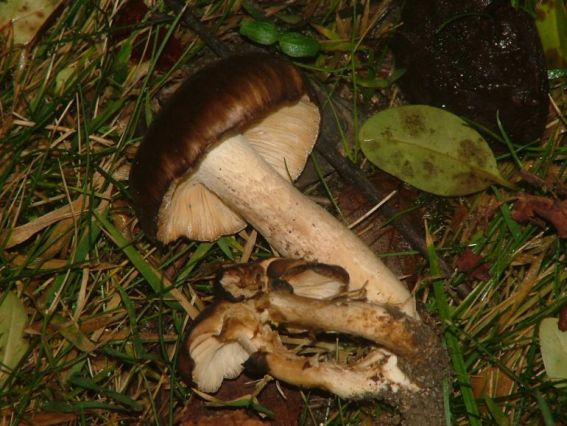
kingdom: Fungi
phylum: Basidiomycota
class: Agaricomycetes
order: Agaricales
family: Lyophyllaceae
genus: Lyophyllum
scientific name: Lyophyllum decastes
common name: Clustered domecap
